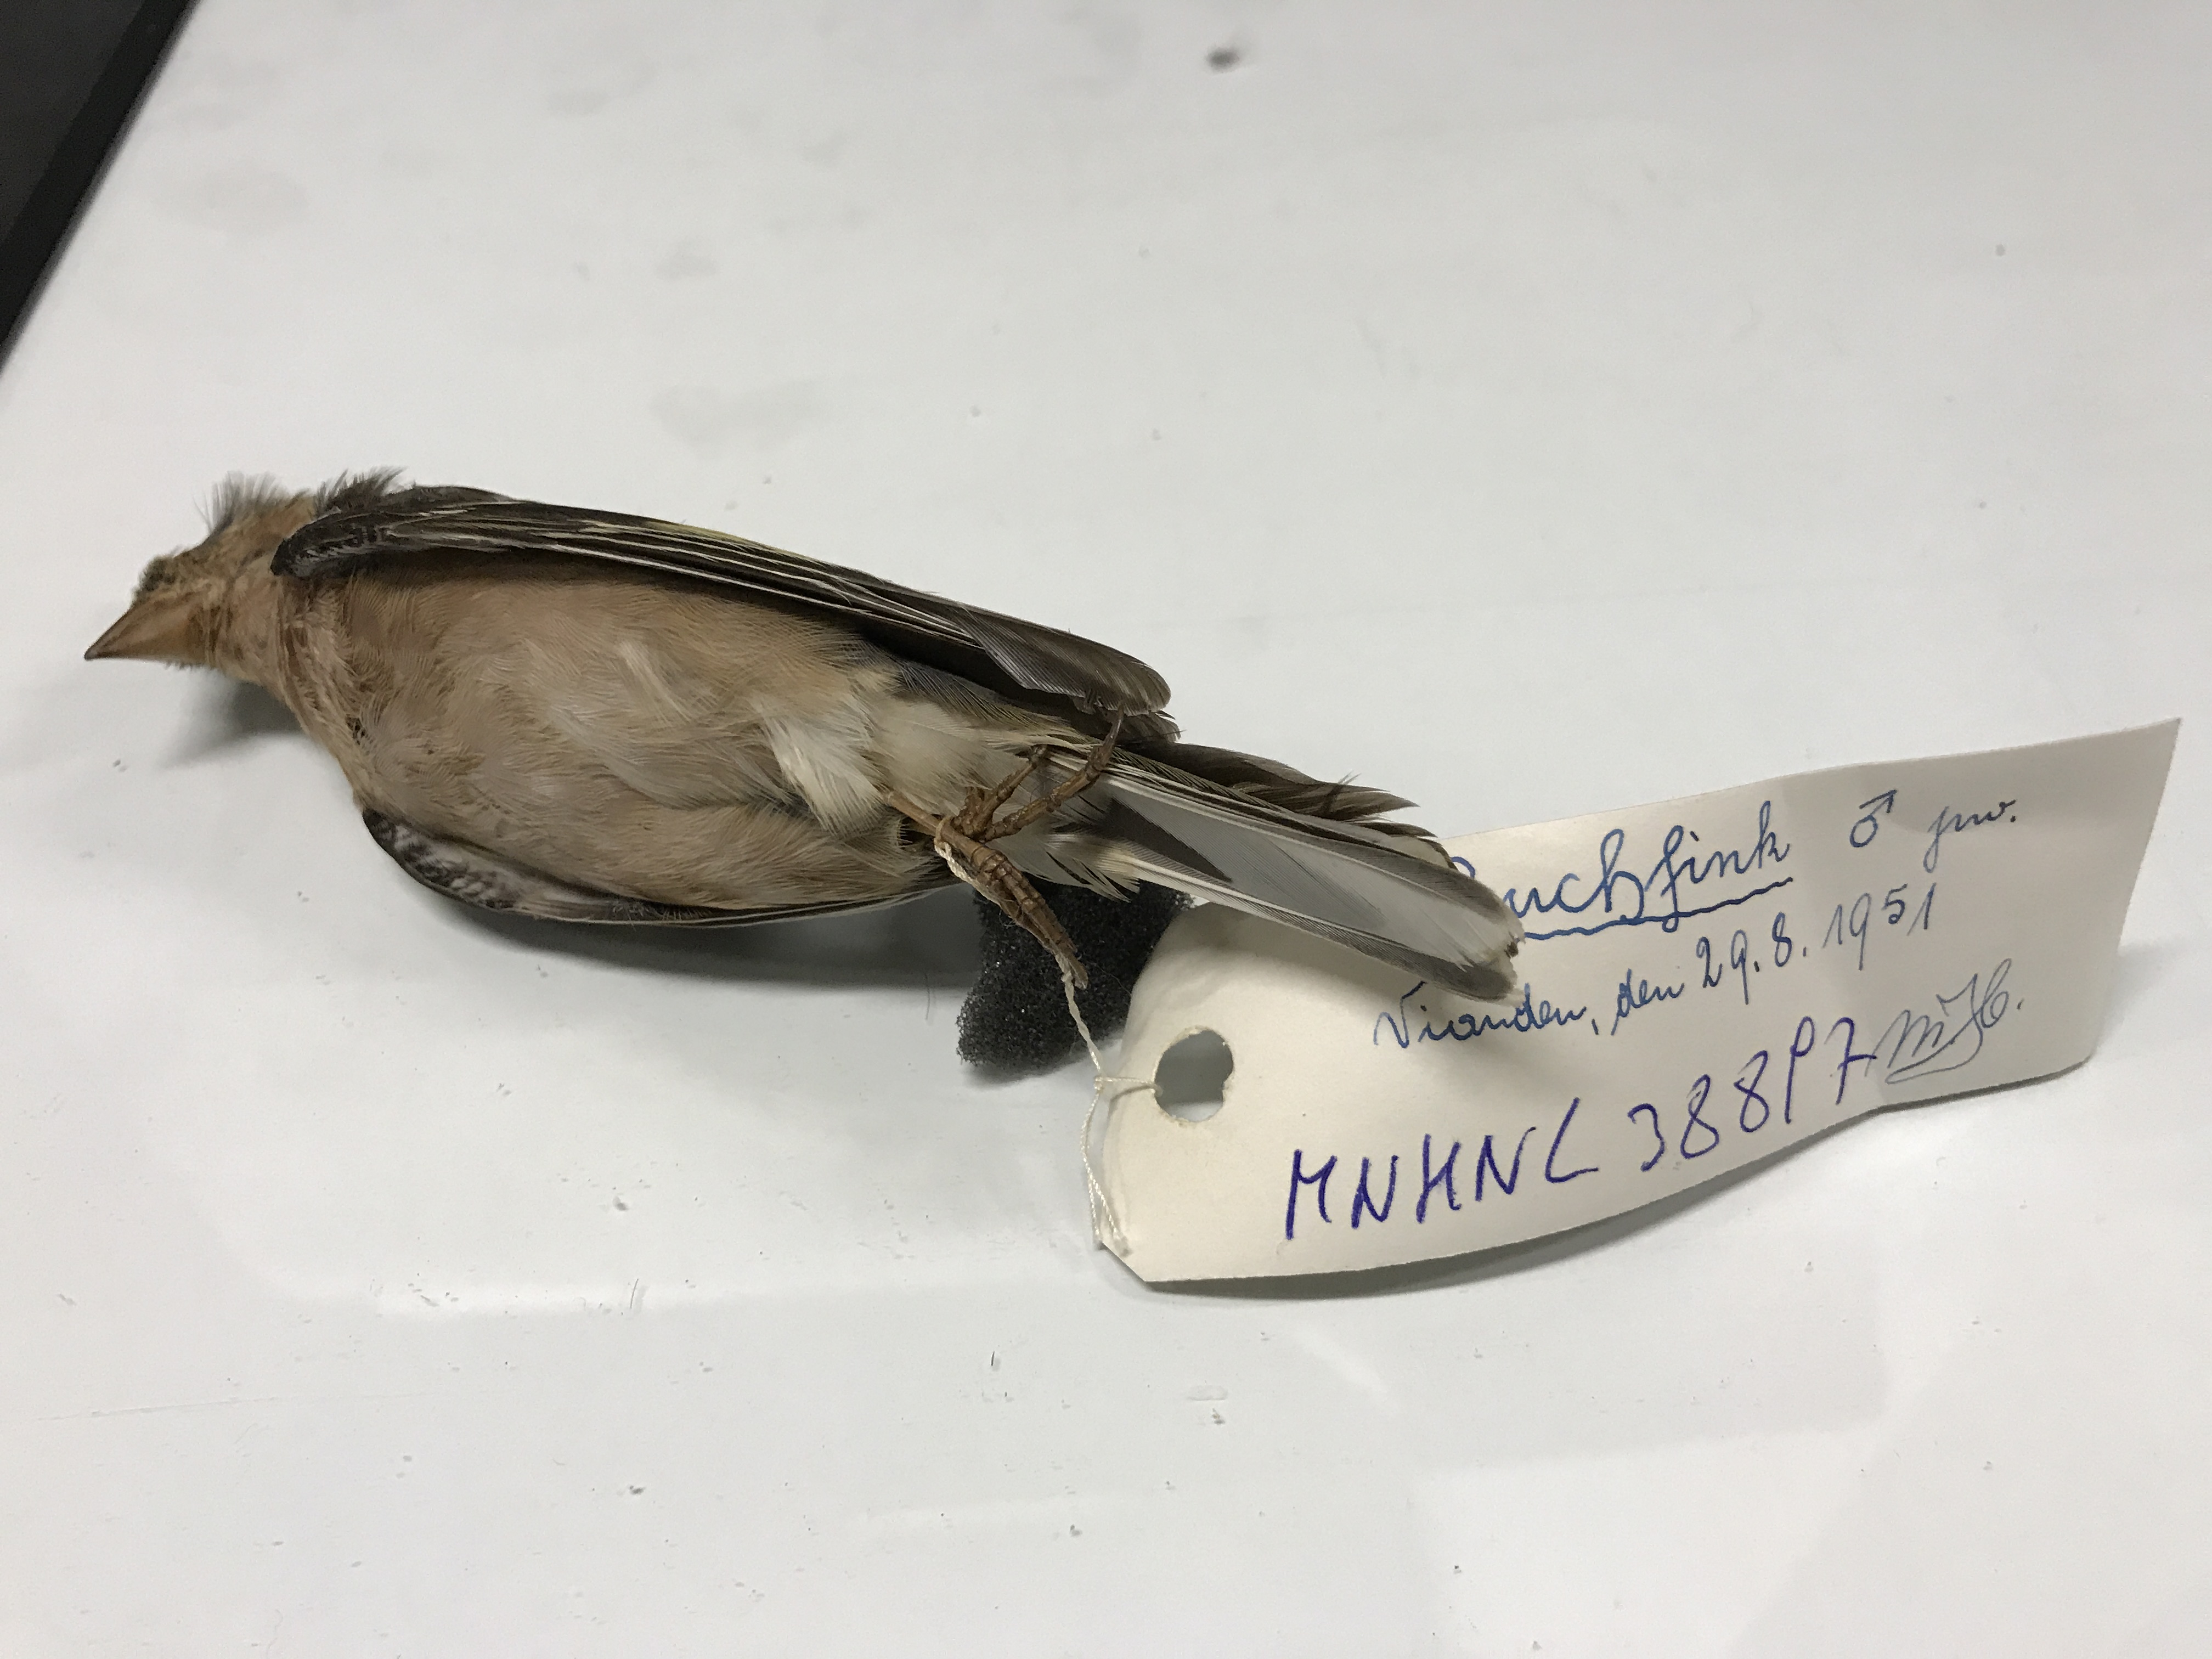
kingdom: Animalia
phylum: Chordata
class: Aves
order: Passeriformes
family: Fringillidae
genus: Fringilla
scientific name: Fringilla coelebs
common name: Common chaffinch
